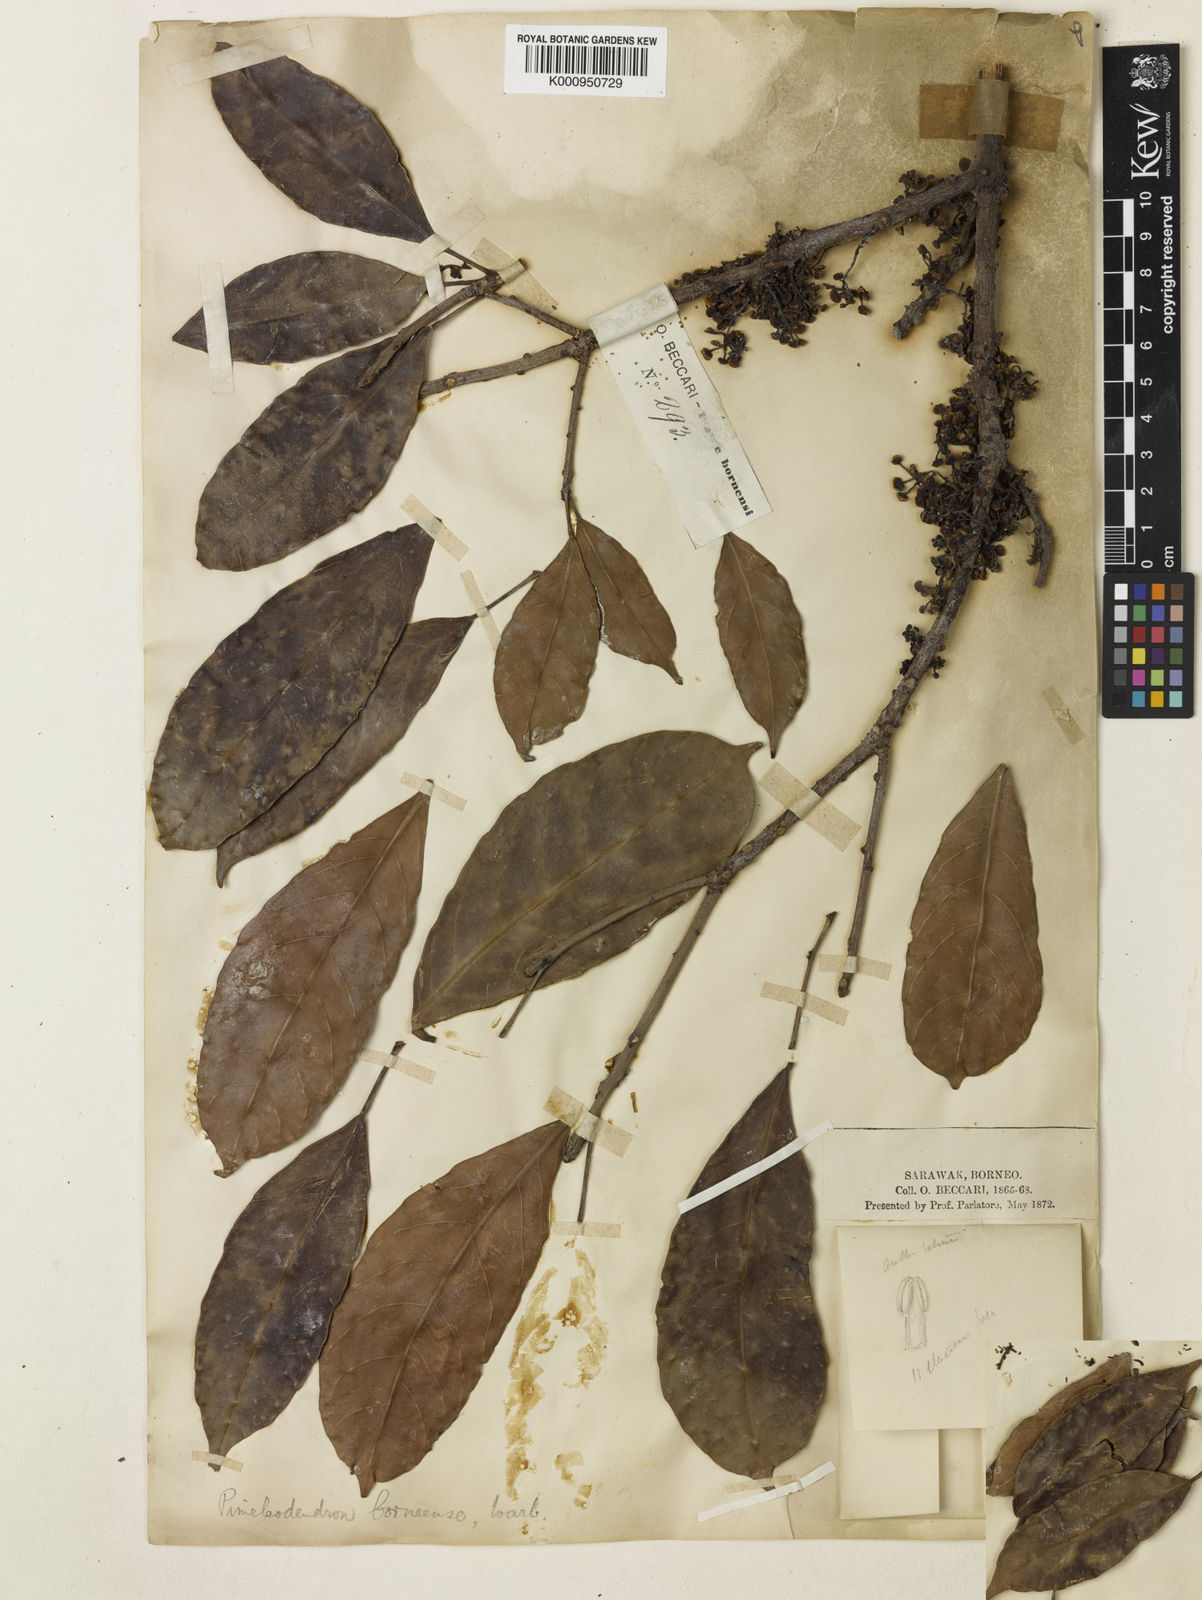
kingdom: Plantae
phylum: Tracheophyta
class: Magnoliopsida
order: Malpighiales
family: Euphorbiaceae
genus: Pimelodendron
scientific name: Pimelodendron
